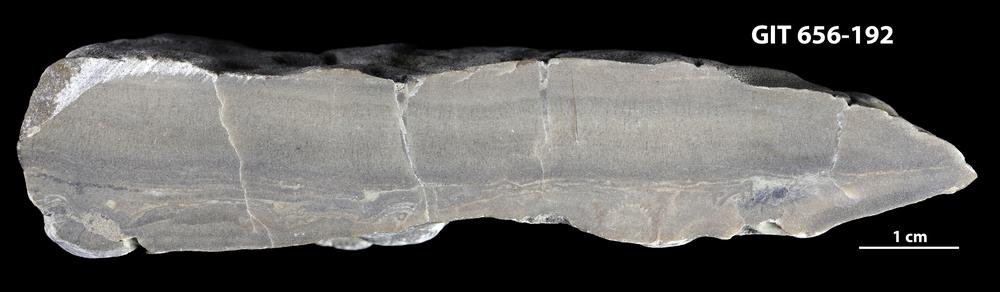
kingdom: Animalia
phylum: Porifera
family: Actinostromatidae
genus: Plectostroma
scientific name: Plectostroma
